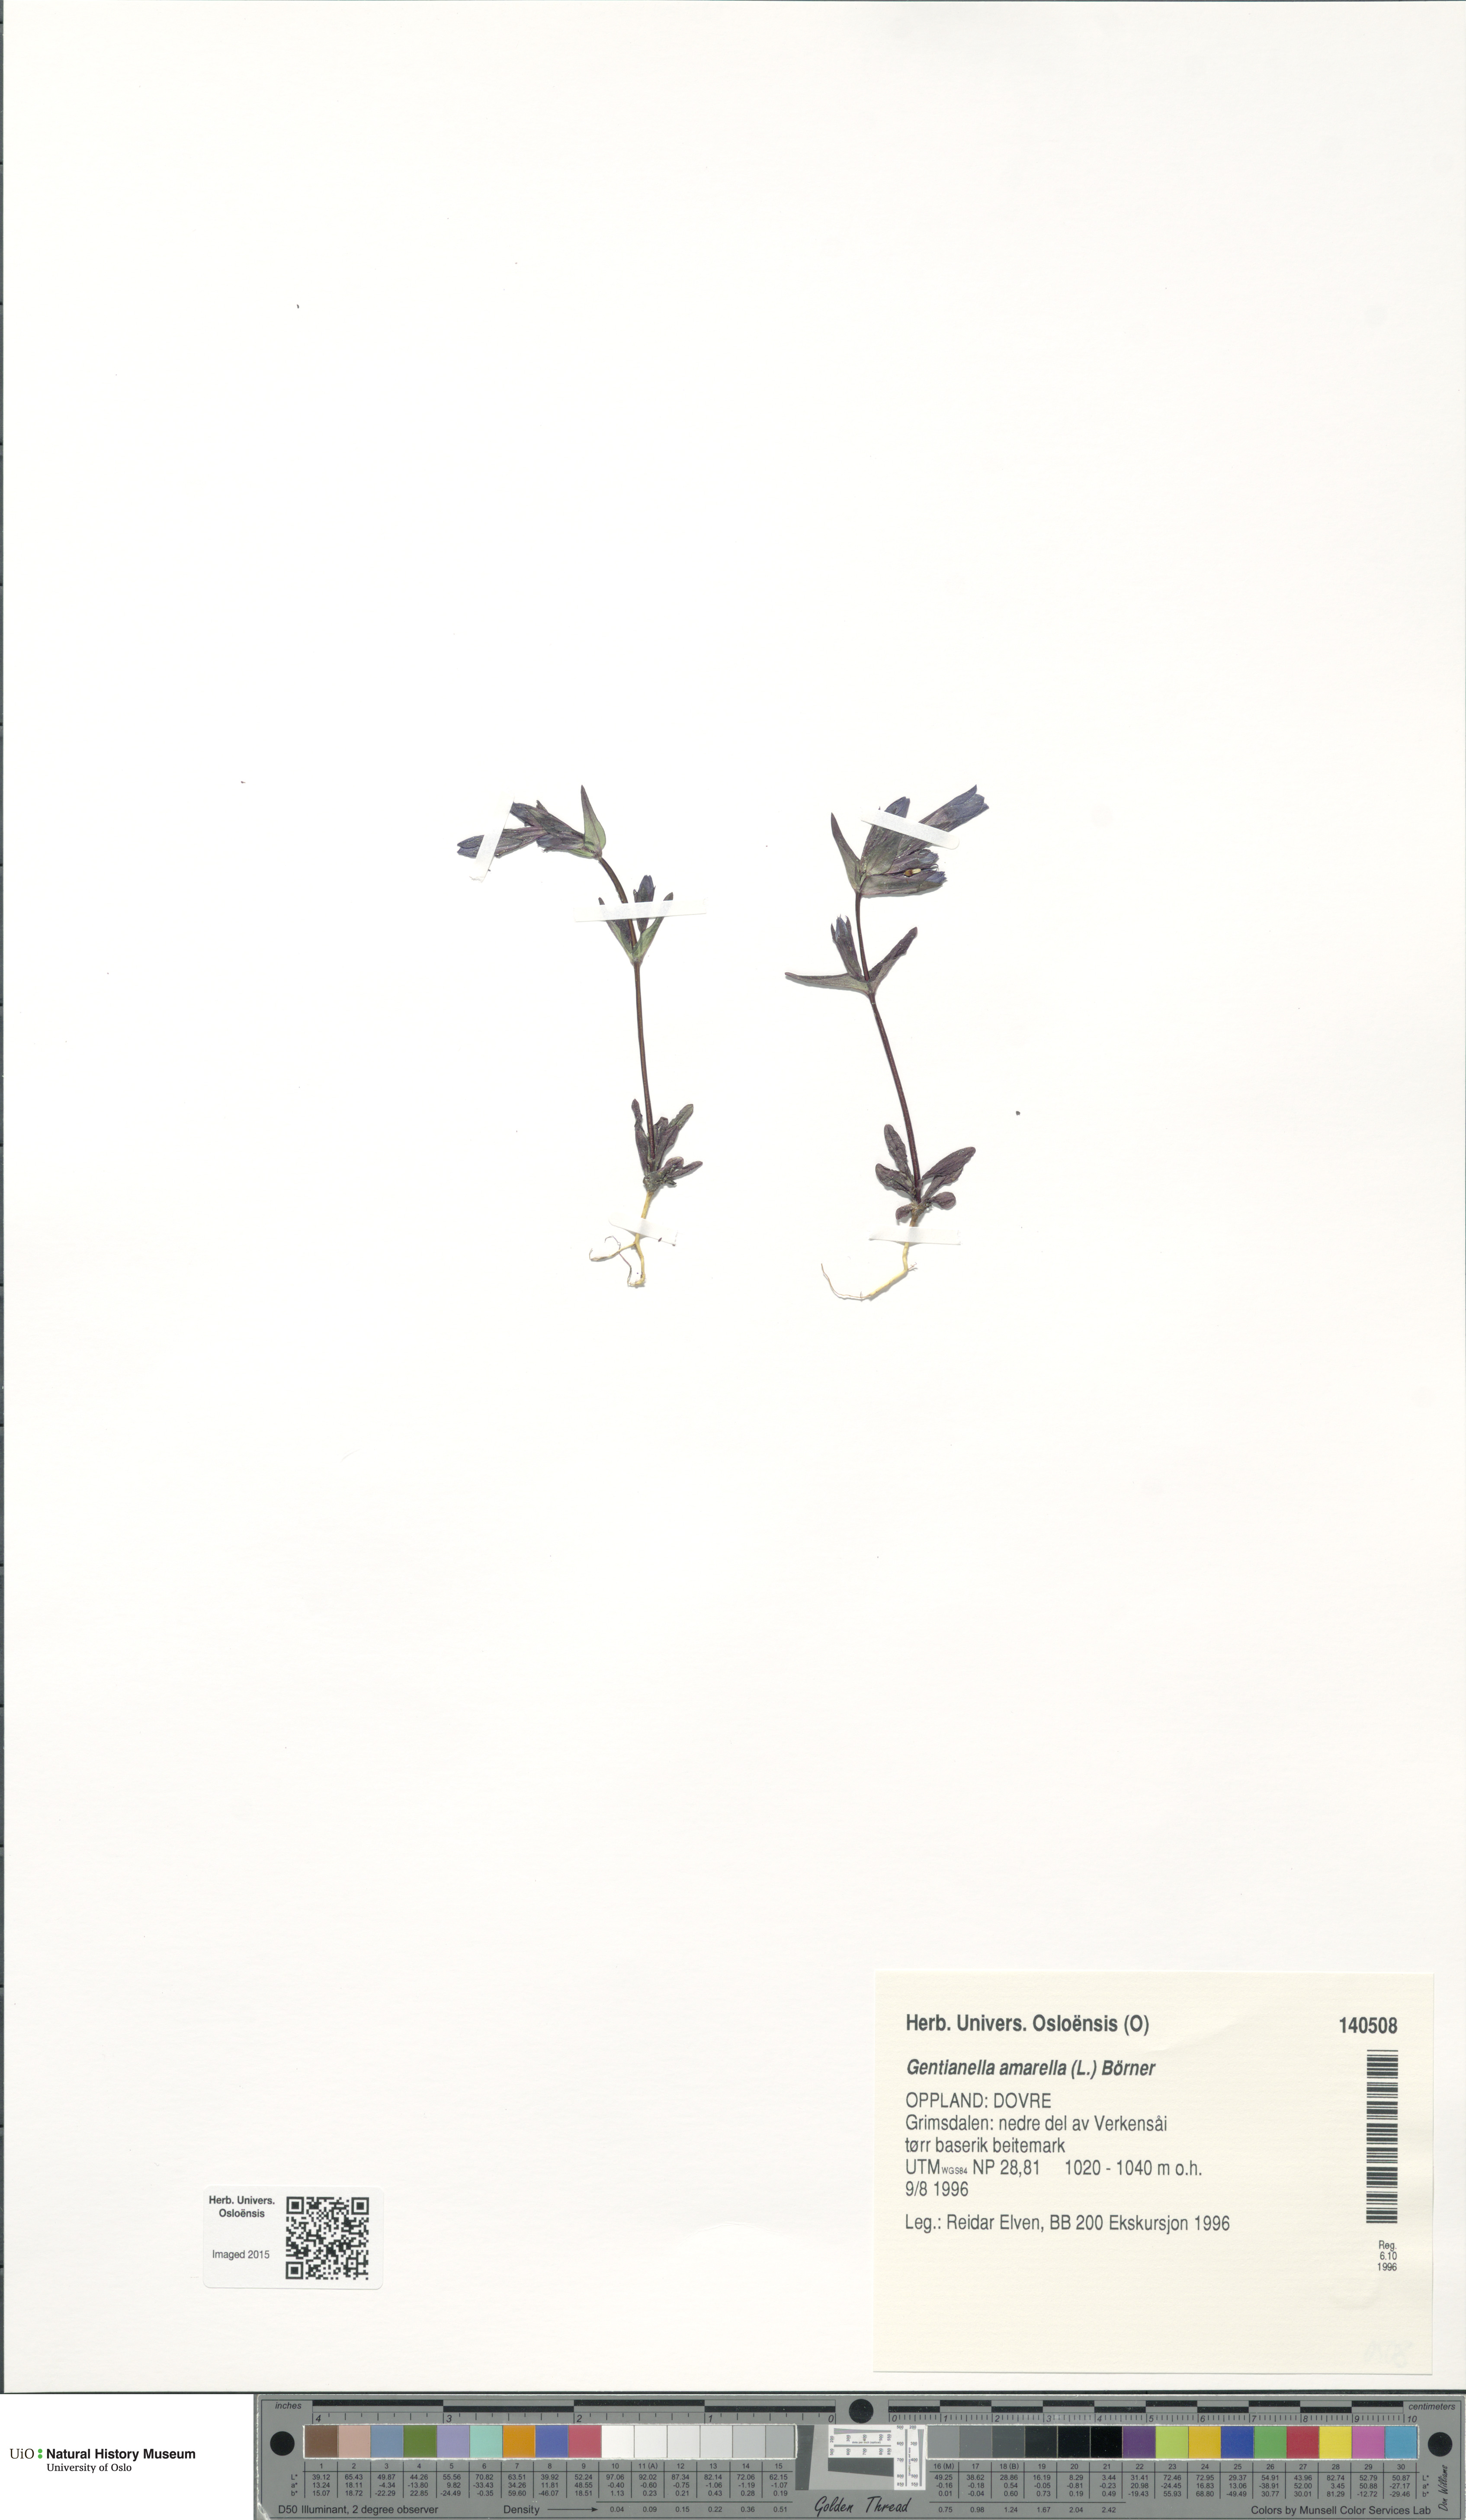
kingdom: Plantae
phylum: Tracheophyta
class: Magnoliopsida
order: Gentianales
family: Gentianaceae
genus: Gentianella
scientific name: Gentianella amarella
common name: Autumn gentian
